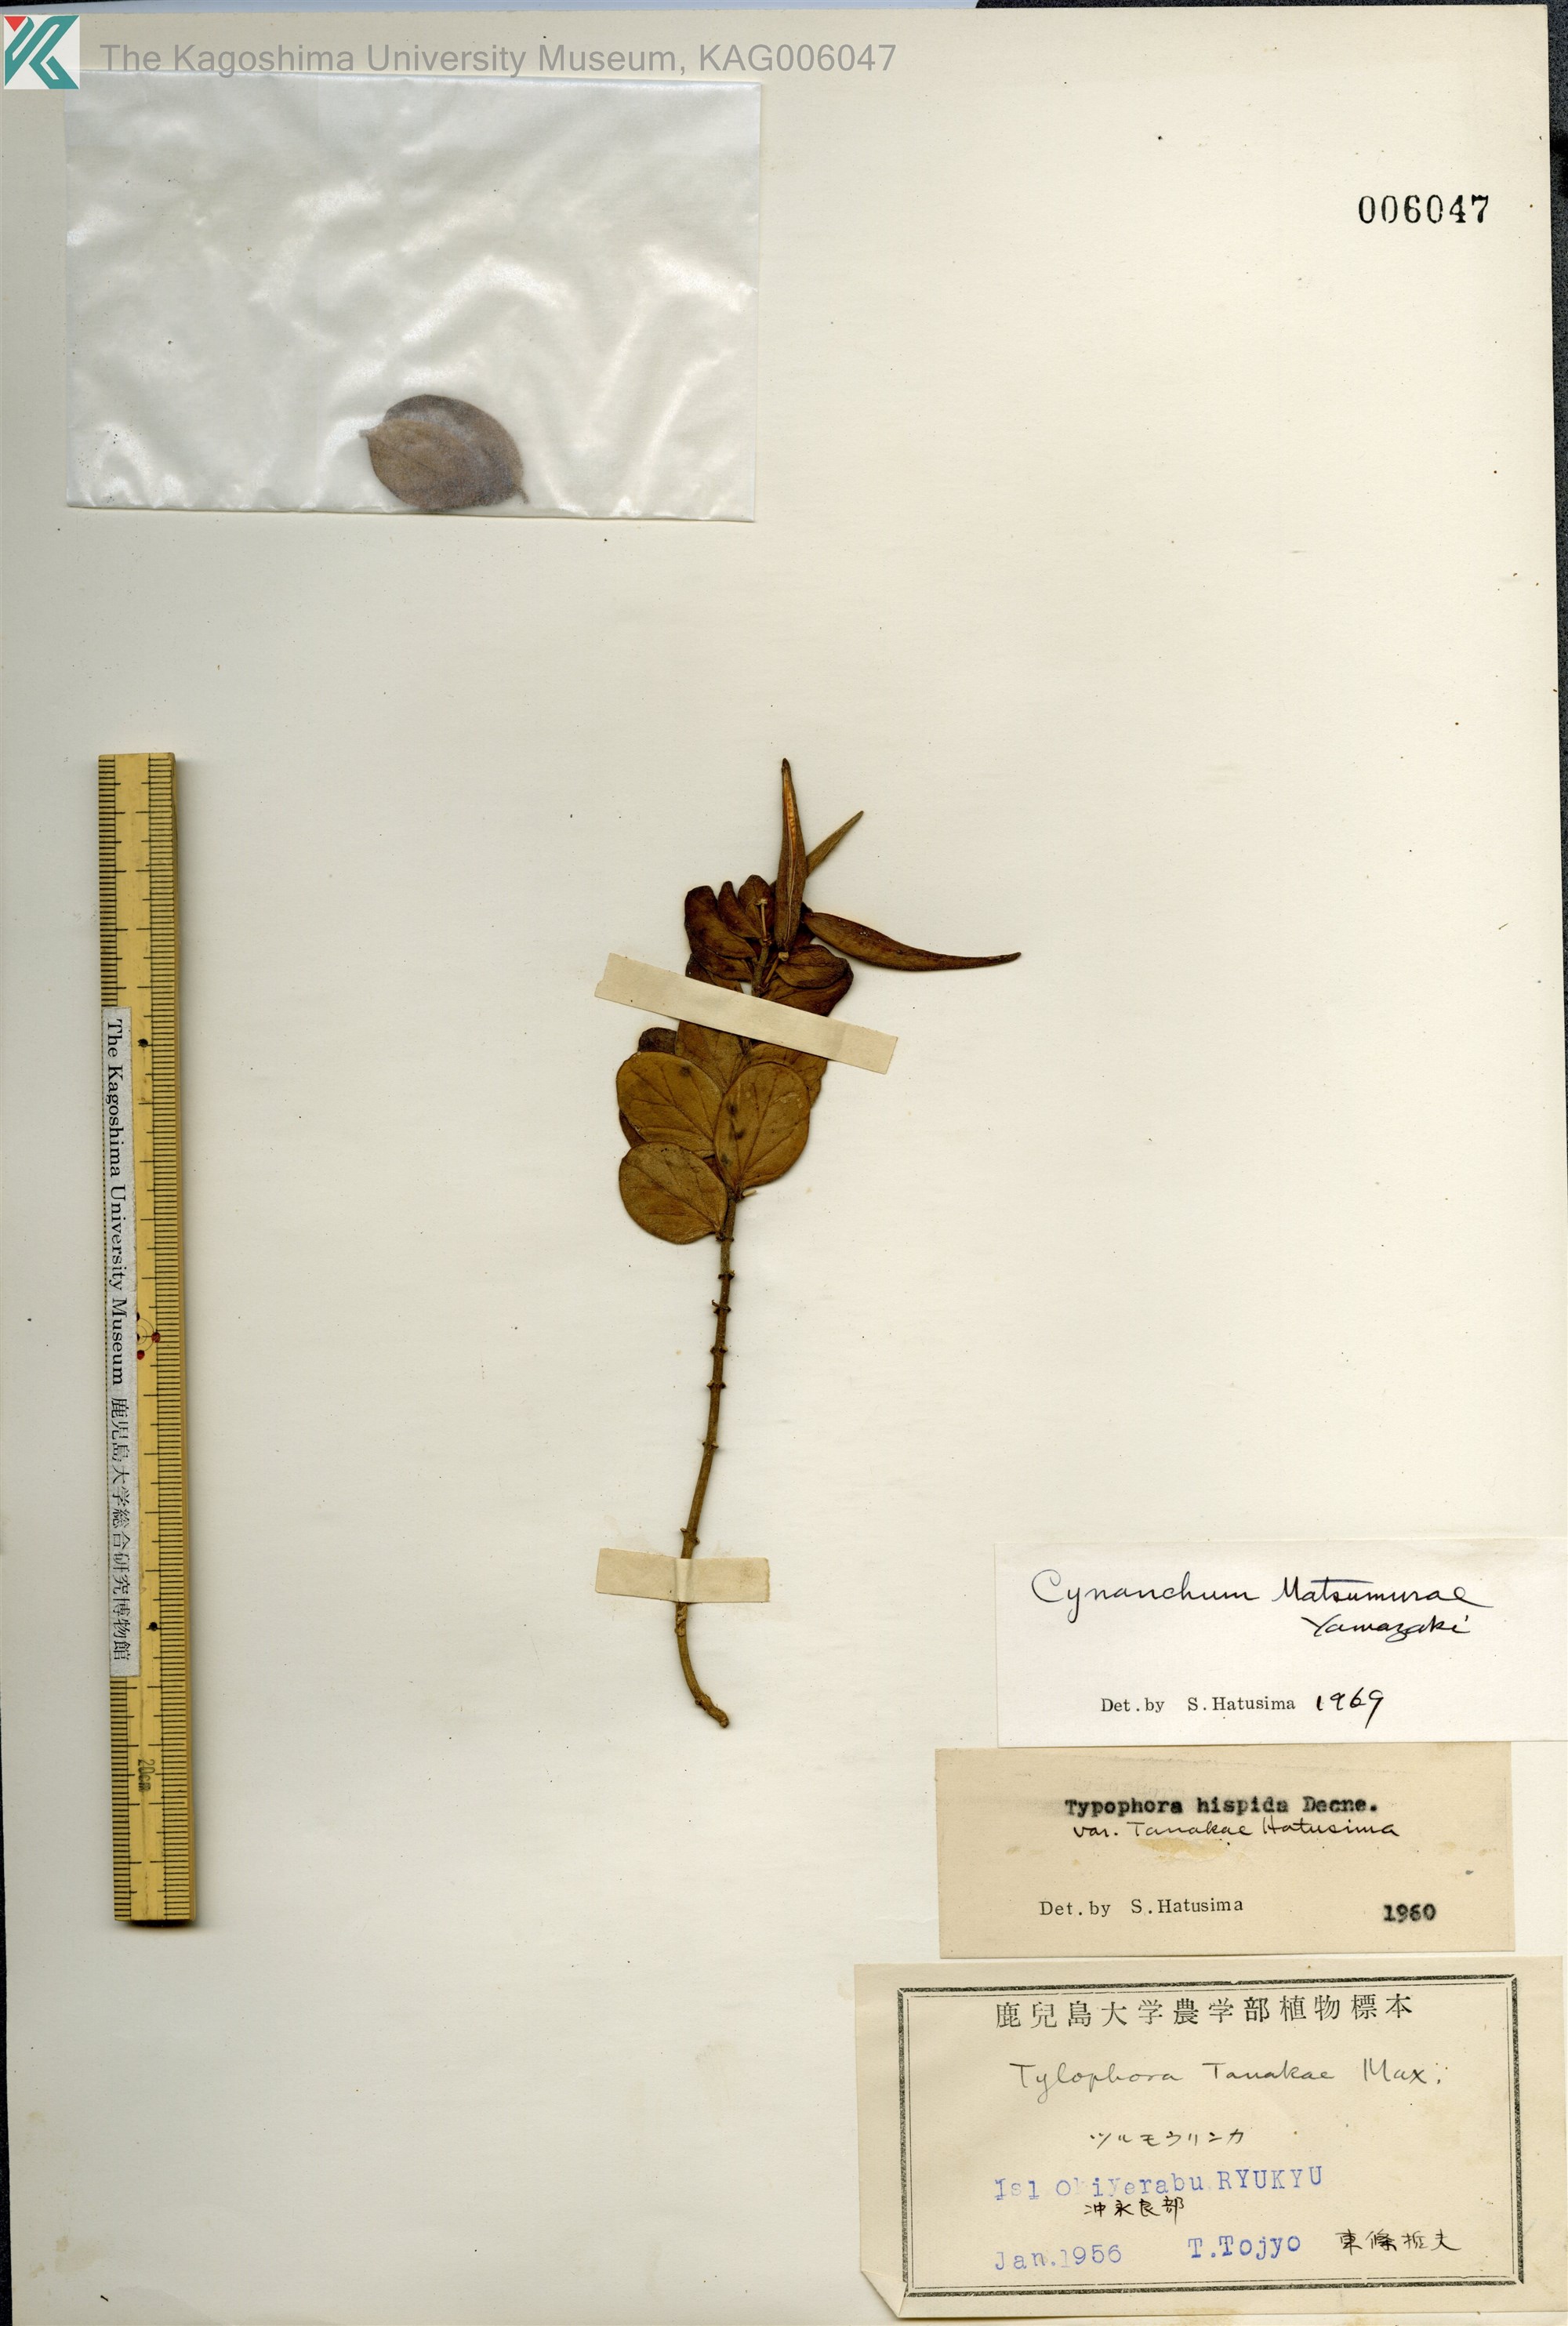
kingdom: Plantae
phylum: Tracheophyta
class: Magnoliopsida
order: Gentianales
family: Apocynaceae
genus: Vincetoxicum
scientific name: Vincetoxicum matsumurae
